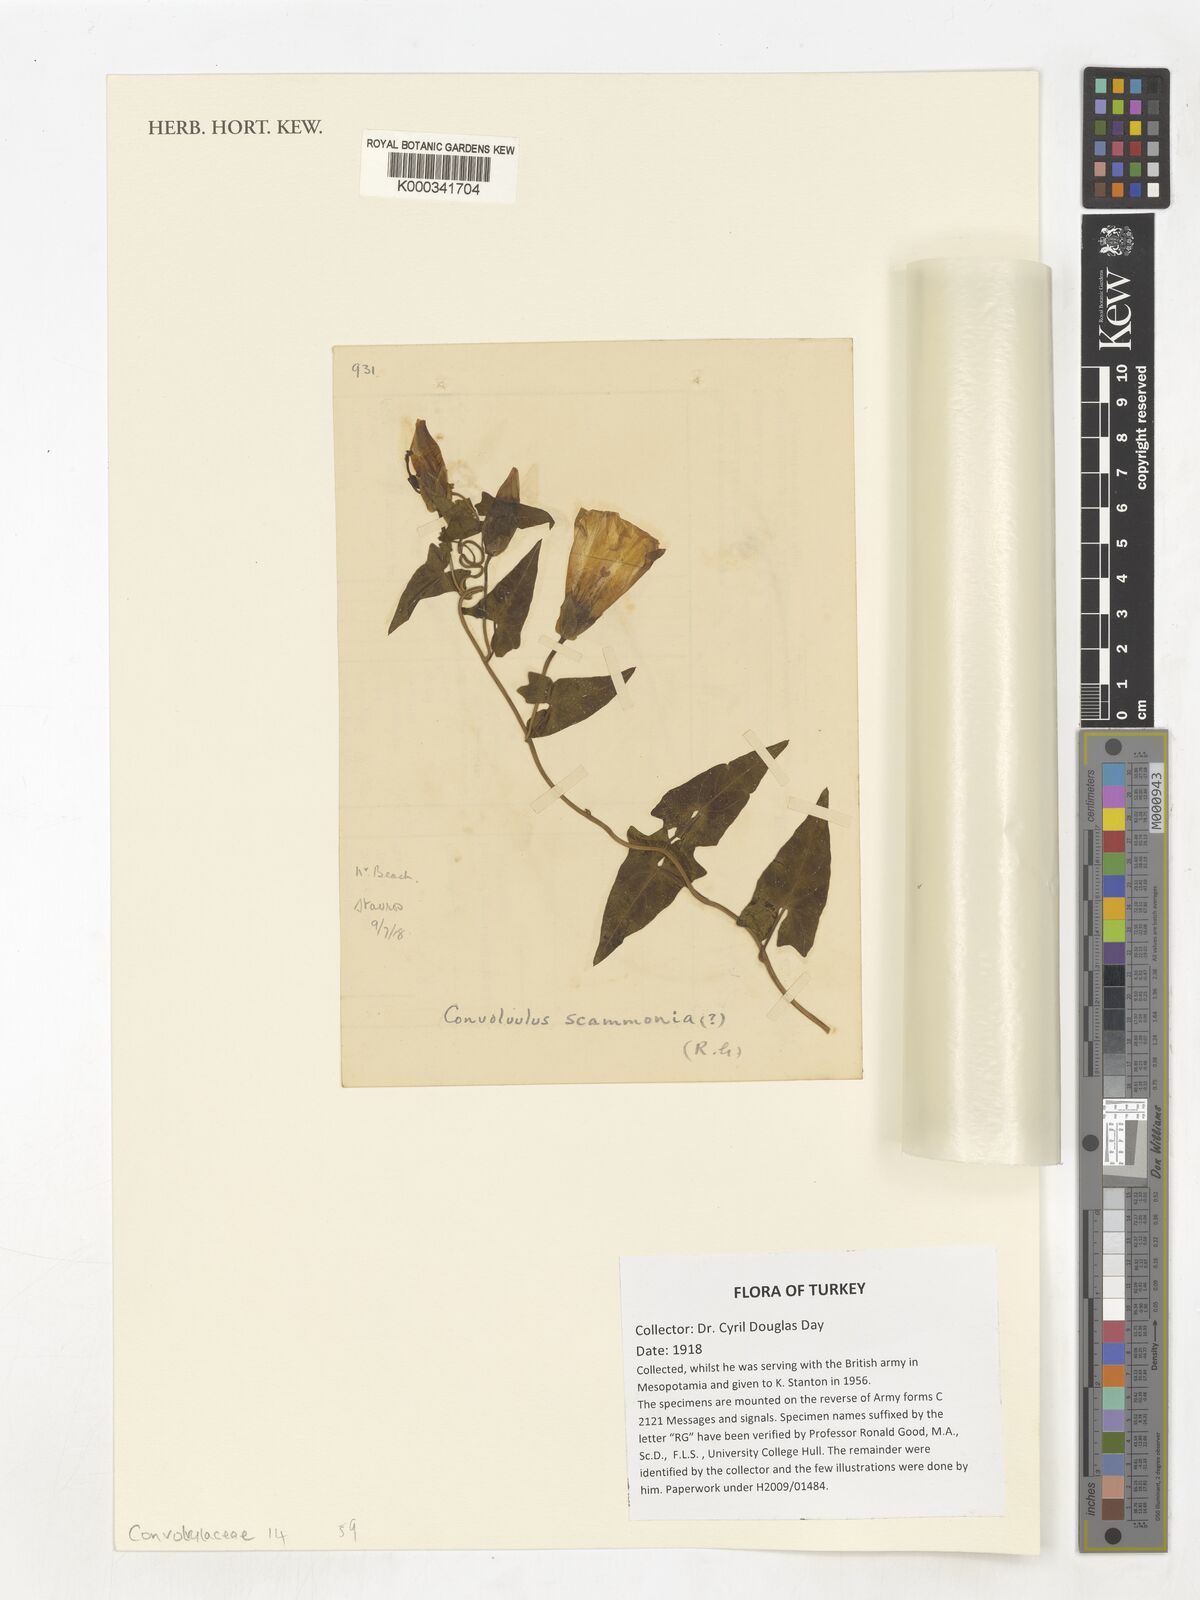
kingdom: Plantae
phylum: Tracheophyta
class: Magnoliopsida
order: Solanales
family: Convolvulaceae
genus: Convolvulus
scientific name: Convolvulus scammonia
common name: Scammony
